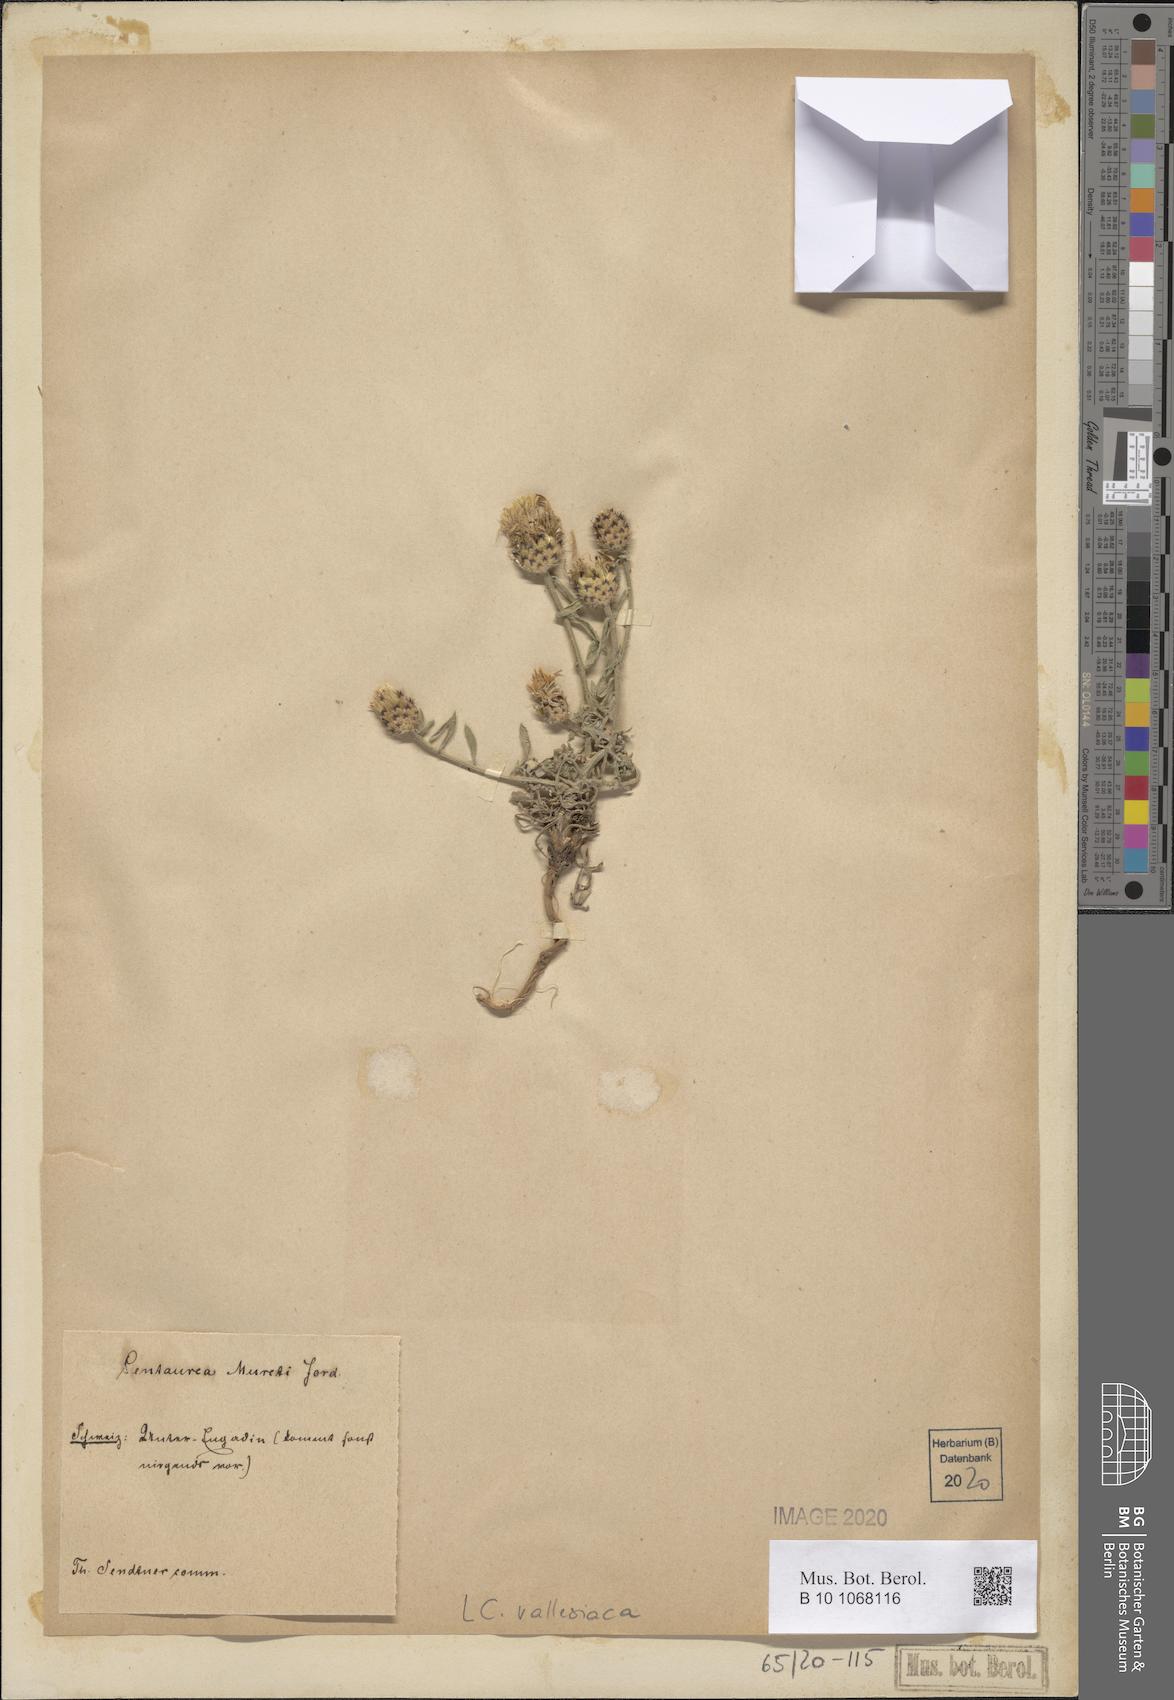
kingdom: Plantae
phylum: Tracheophyta
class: Magnoliopsida
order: Asterales
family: Asteraceae
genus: Centaurea
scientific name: Centaurea valesiaca
